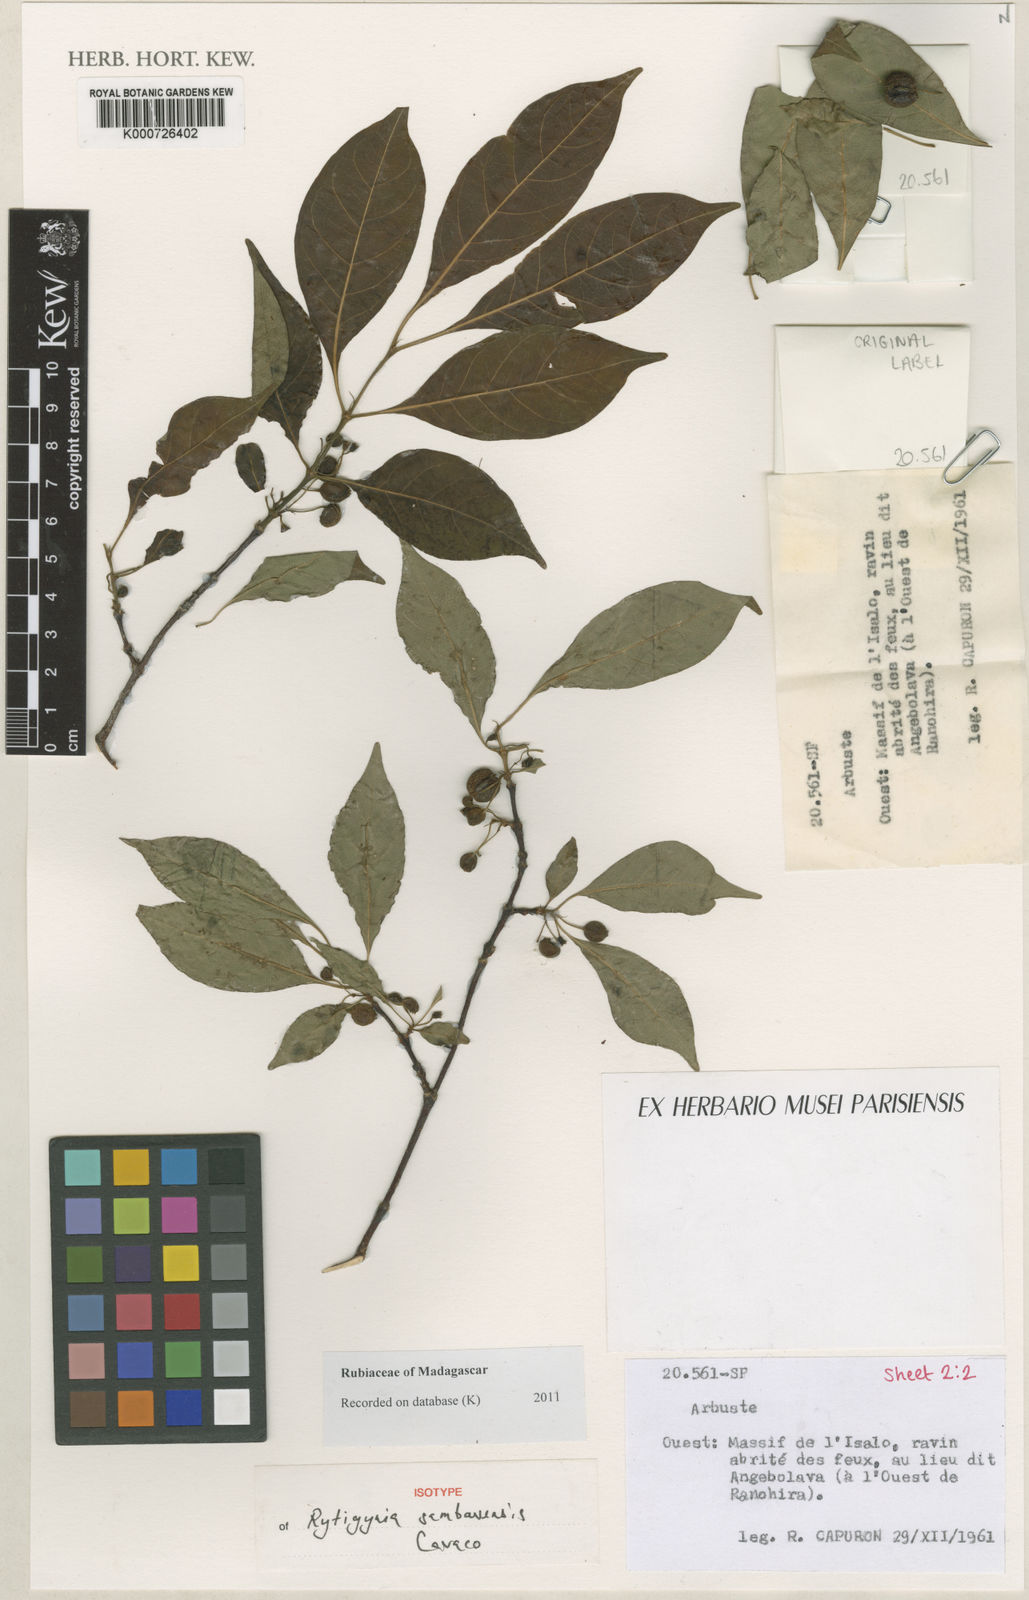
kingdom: Plantae
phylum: Tracheophyta
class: Magnoliopsida
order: Gentianales
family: Rubiaceae
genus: Rytigynia
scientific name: Rytigynia sambavensis
